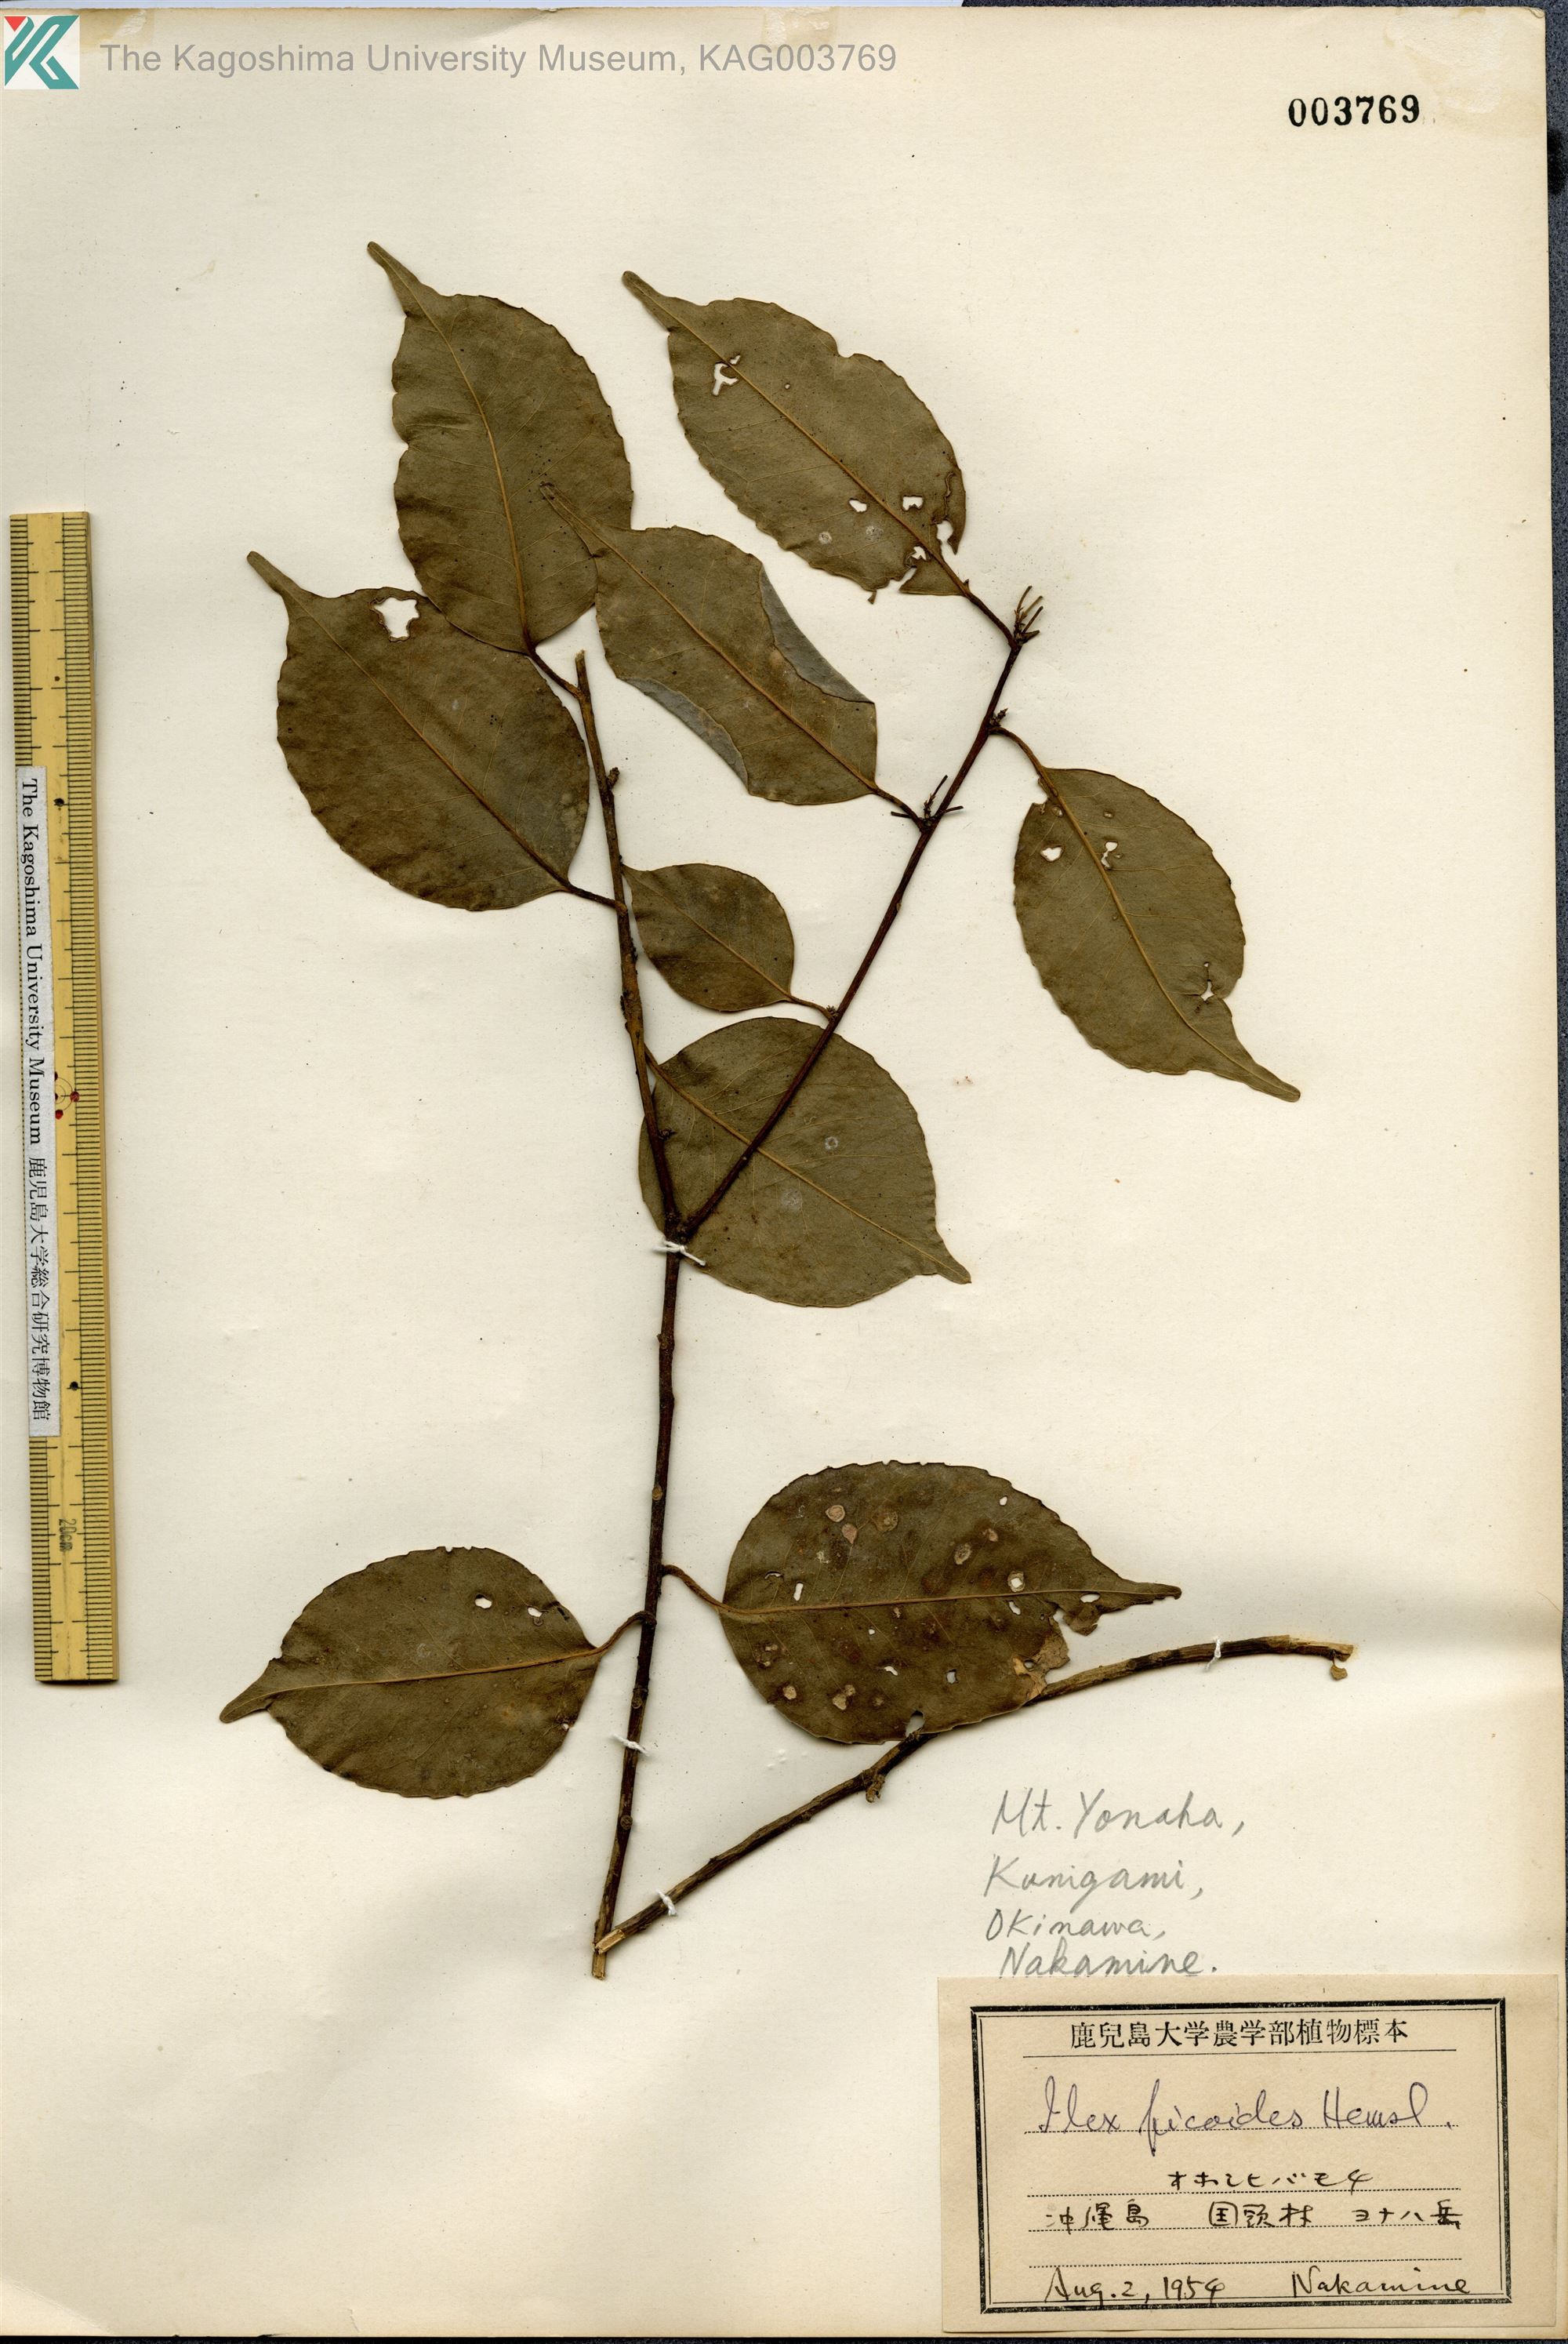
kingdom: Plantae
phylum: Tracheophyta
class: Magnoliopsida
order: Aquifoliales
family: Aquifoliaceae
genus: Ilex
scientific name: Ilex warburgii
